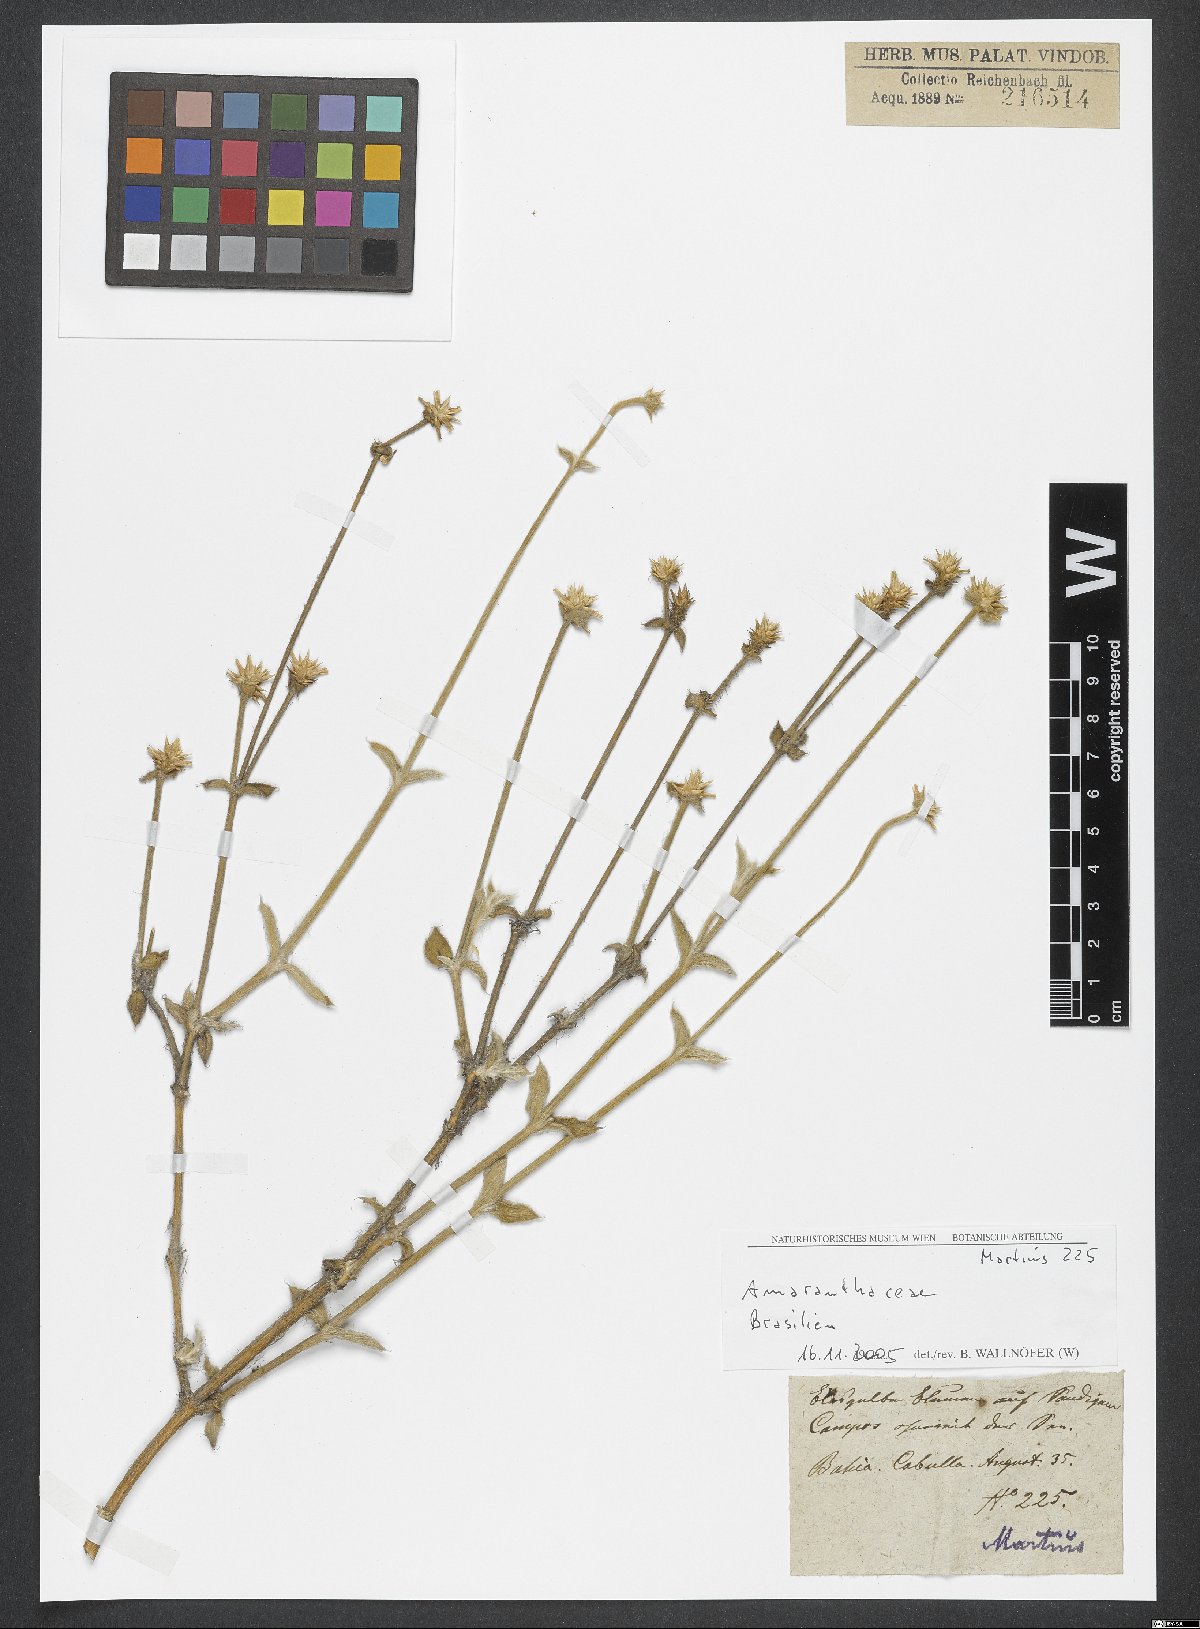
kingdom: Plantae
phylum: Tracheophyta
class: Magnoliopsida
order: Caryophyllales
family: Amaranthaceae
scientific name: Amaranthaceae
